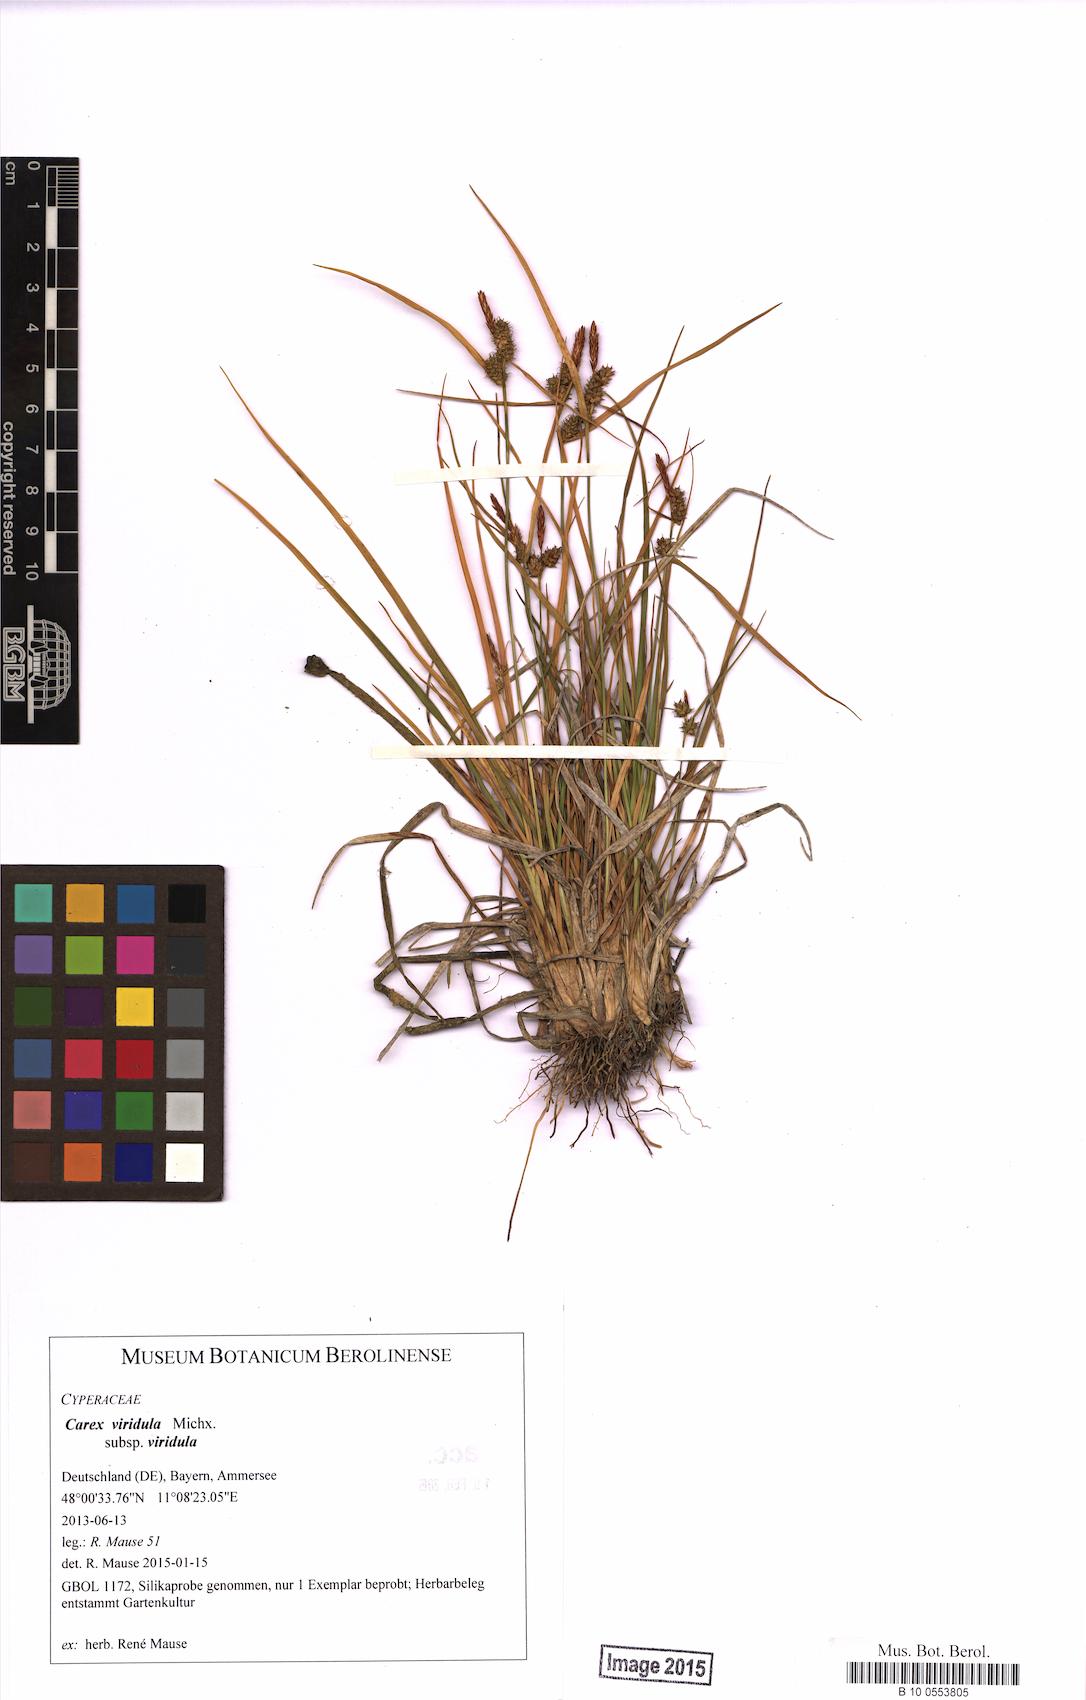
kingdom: Plantae
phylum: Tracheophyta
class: Liliopsida
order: Poales
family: Cyperaceae
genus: Carex
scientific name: Carex oederi
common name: Common & small-fruited yellow-sedge
